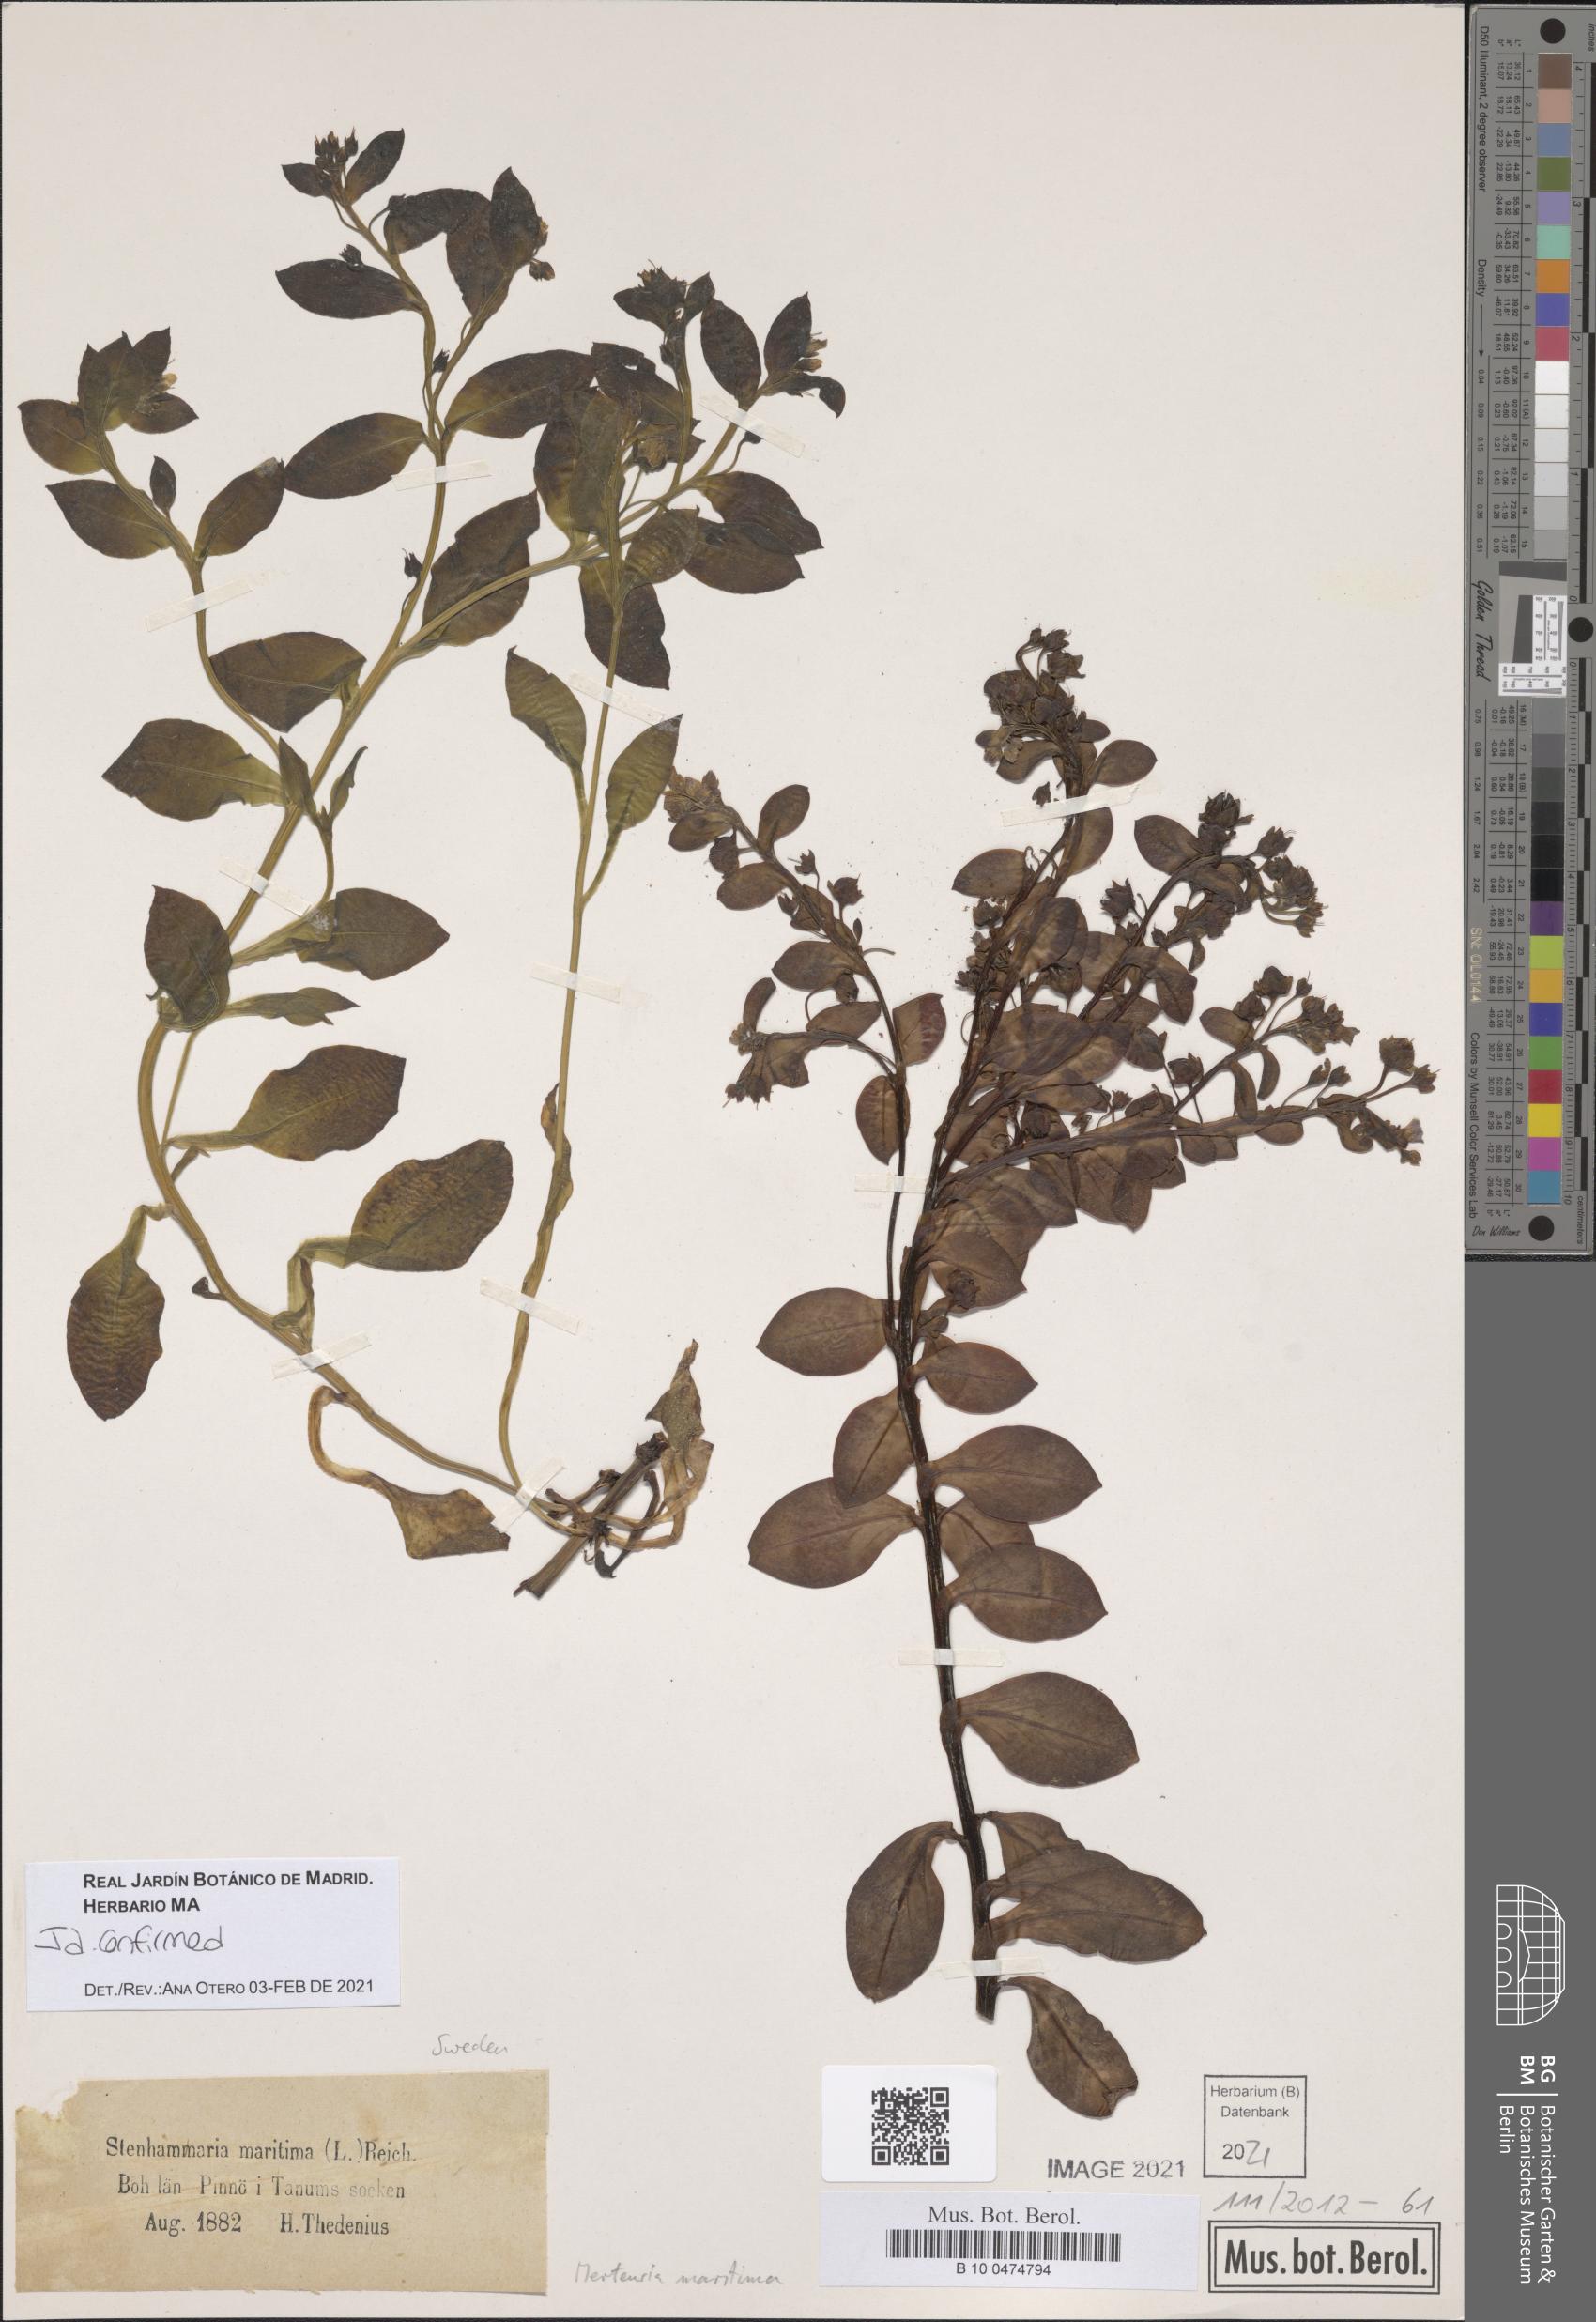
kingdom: Plantae
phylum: Tracheophyta
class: Magnoliopsida
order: Boraginales
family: Boraginaceae
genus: Mertensia
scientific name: Mertensia maritima
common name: Oysterplant
